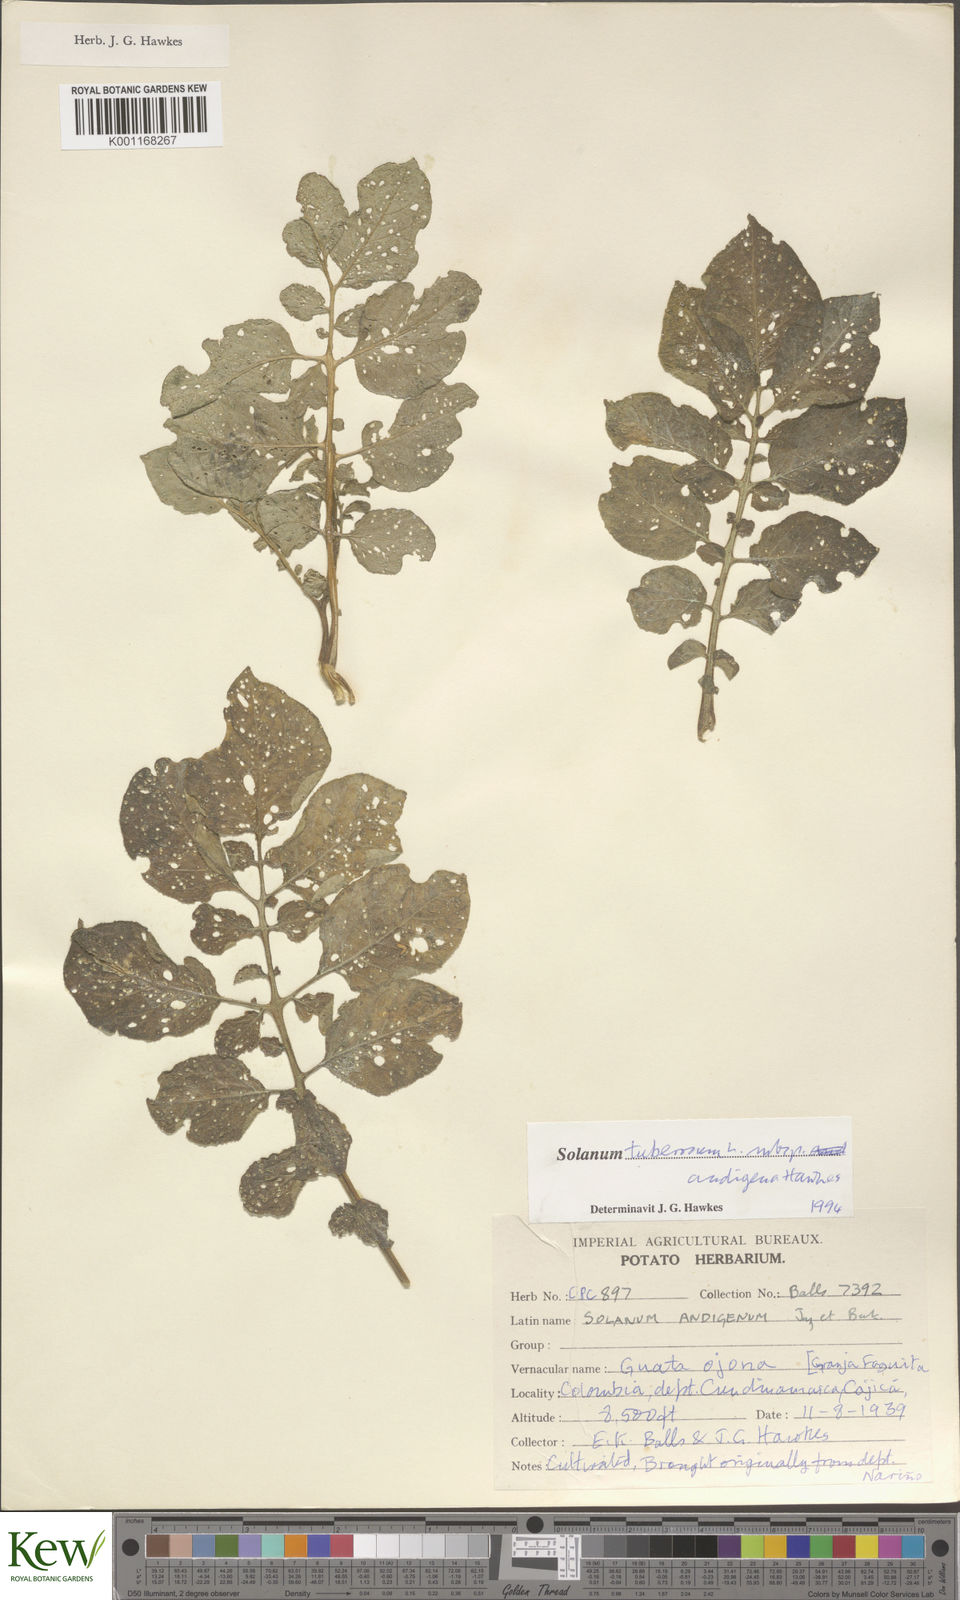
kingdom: Plantae
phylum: Tracheophyta
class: Magnoliopsida
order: Solanales
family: Solanaceae
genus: Solanum
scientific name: Solanum tuberosum
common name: Potato
